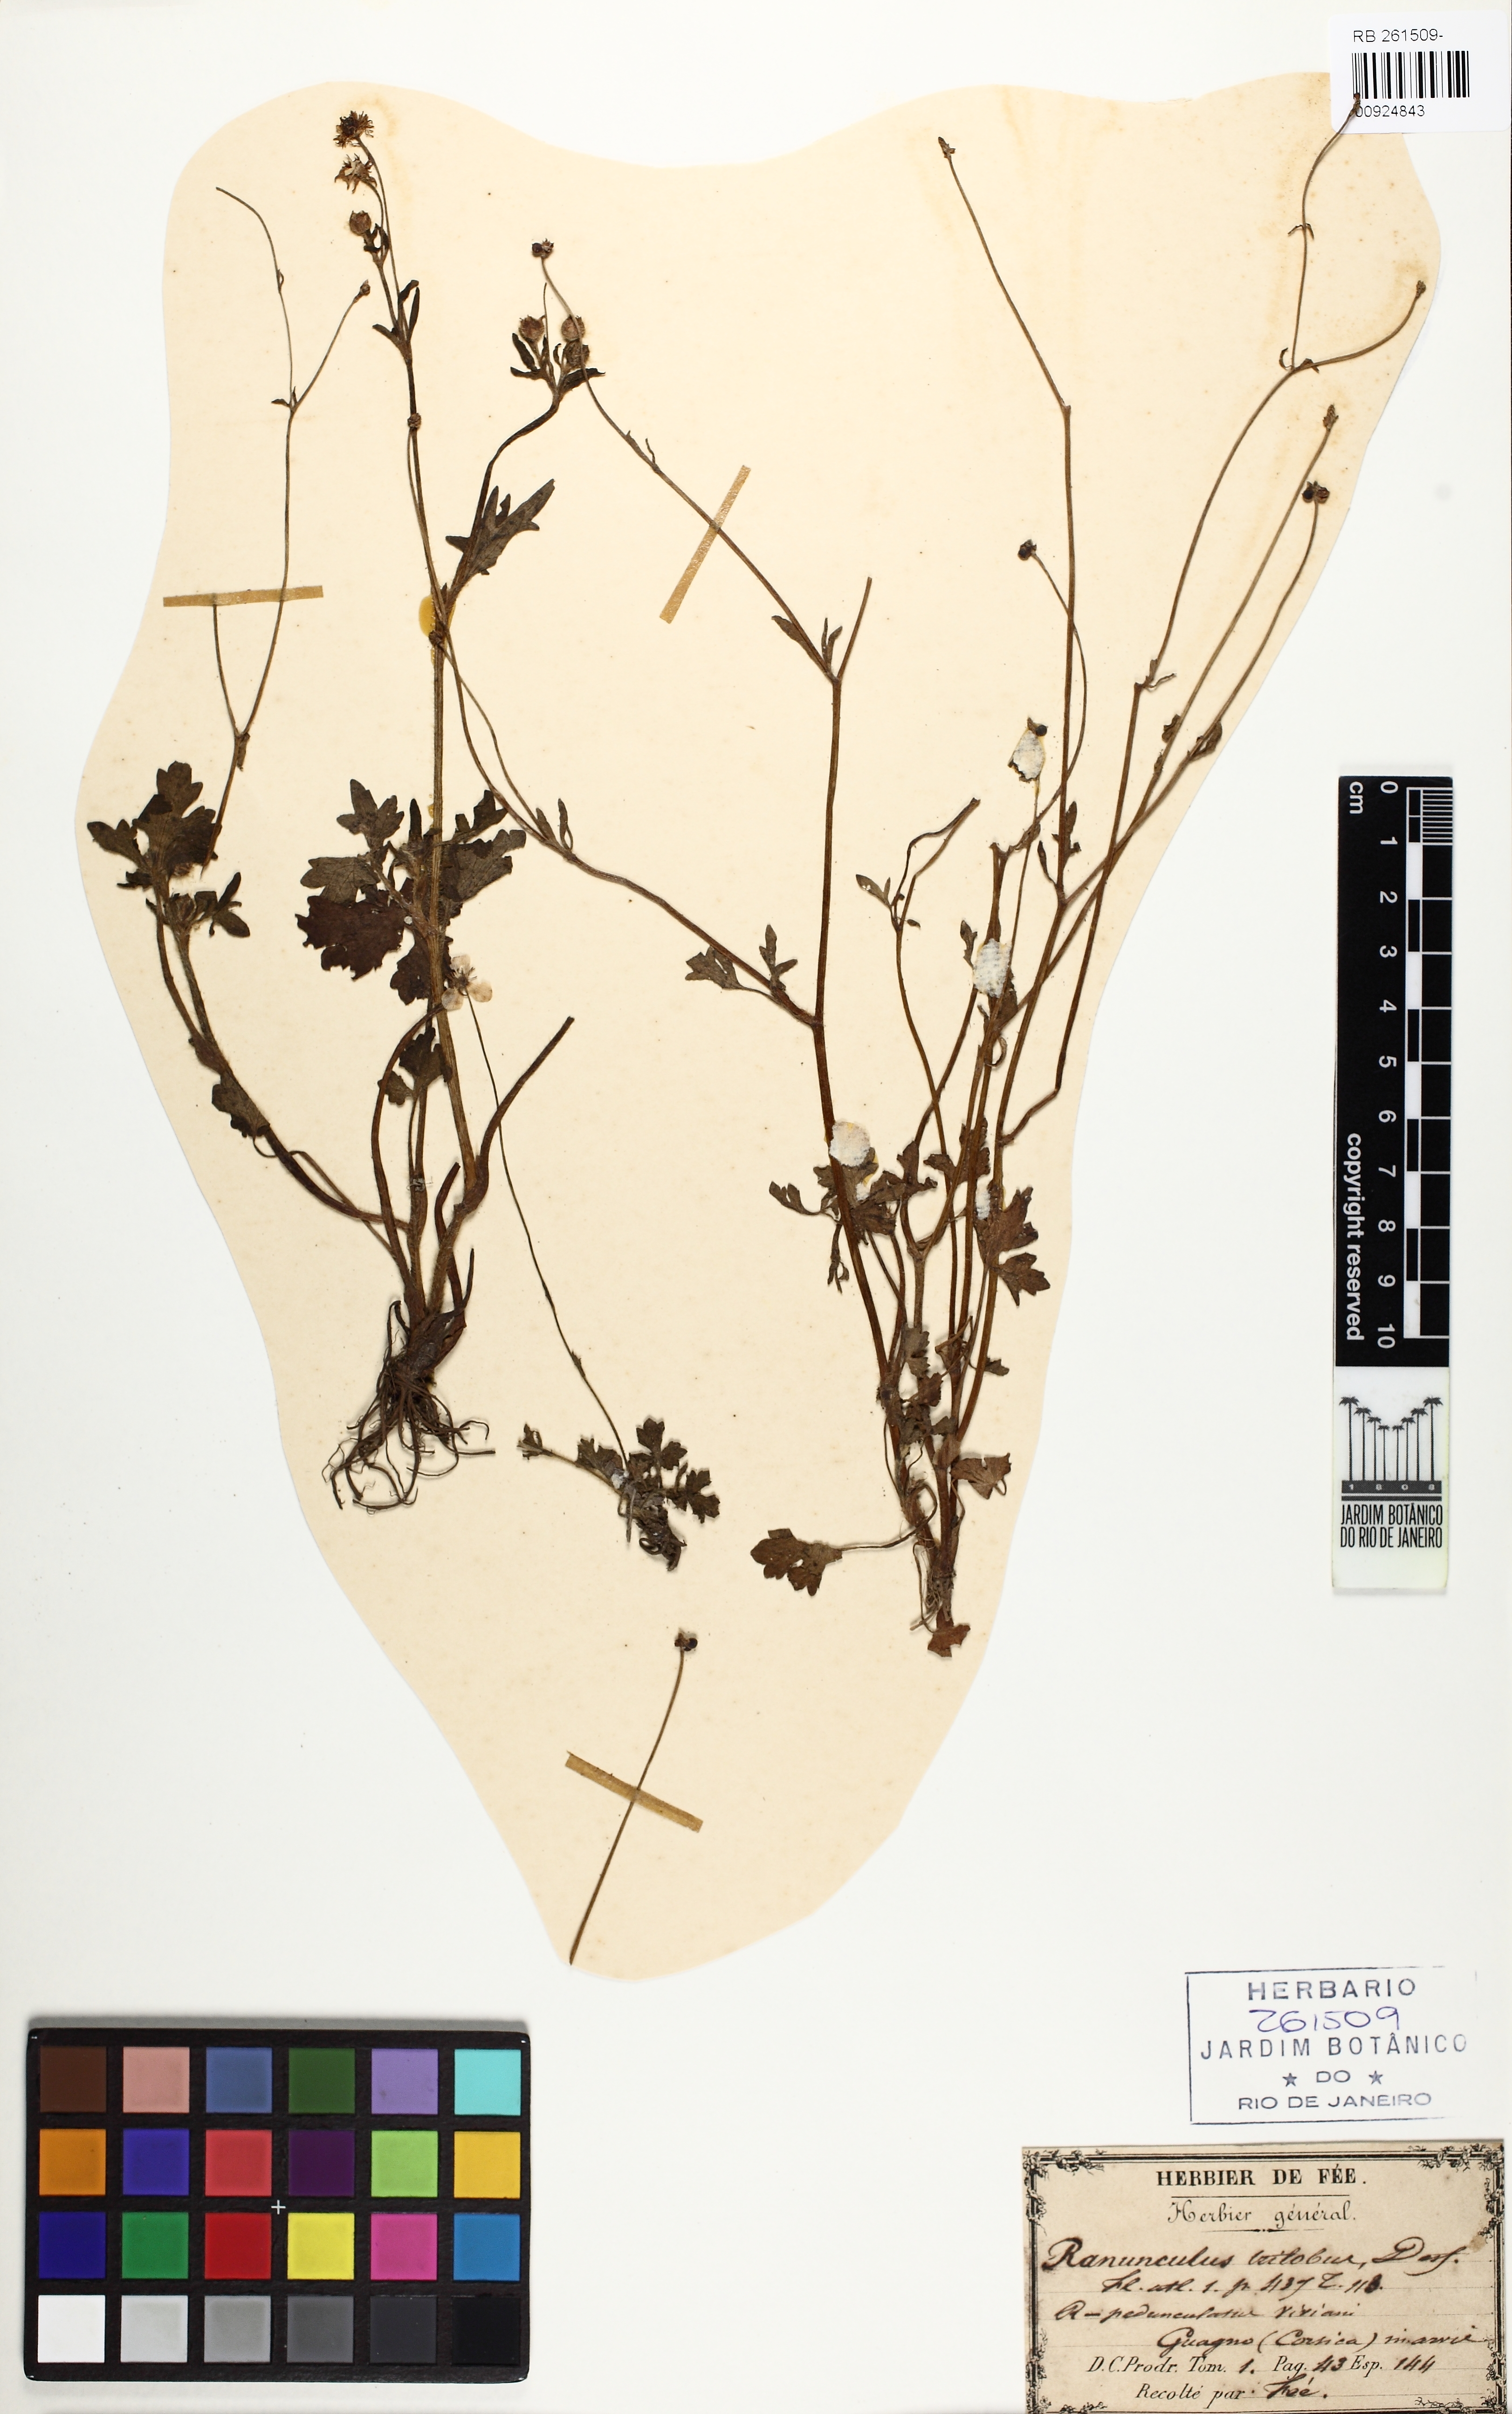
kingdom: Plantae
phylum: Tracheophyta
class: Magnoliopsida
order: Ranunculales
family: Ranunculaceae
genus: Ranunculus
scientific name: Ranunculus trilobus
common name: Threelobe buttercup
